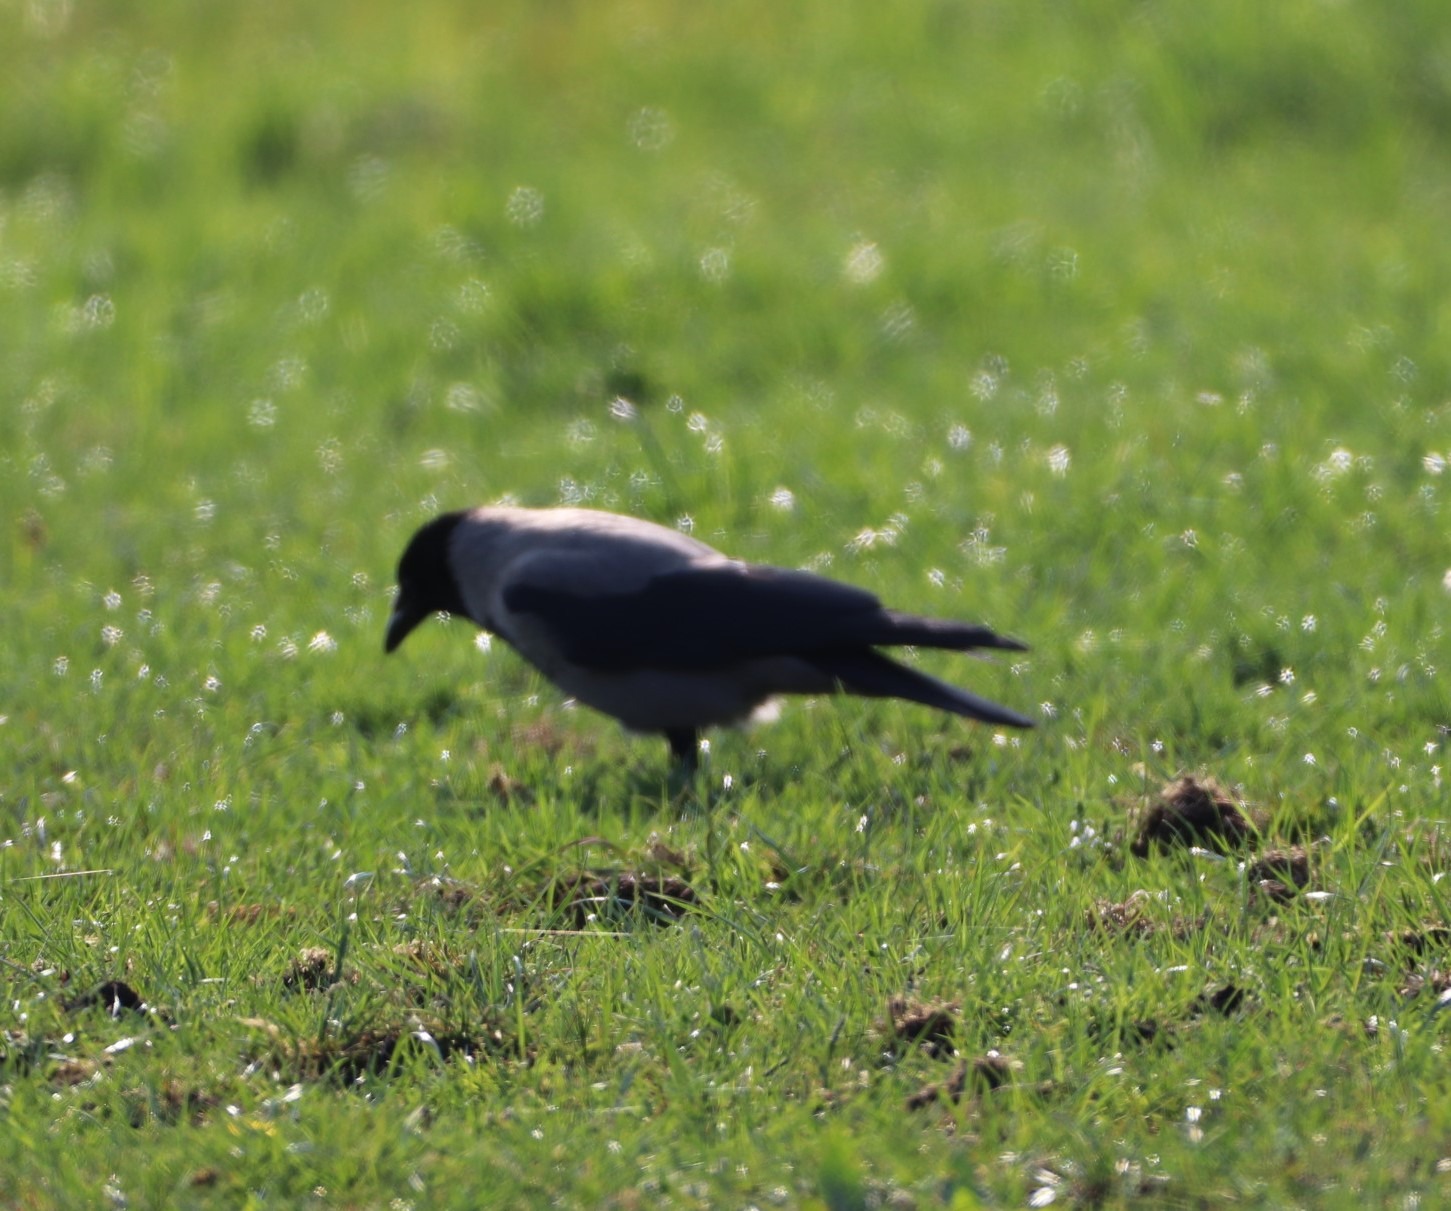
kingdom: Animalia
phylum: Chordata
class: Aves
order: Passeriformes
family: Corvidae
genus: Corvus
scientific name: Corvus cornix
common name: Gråkrage
